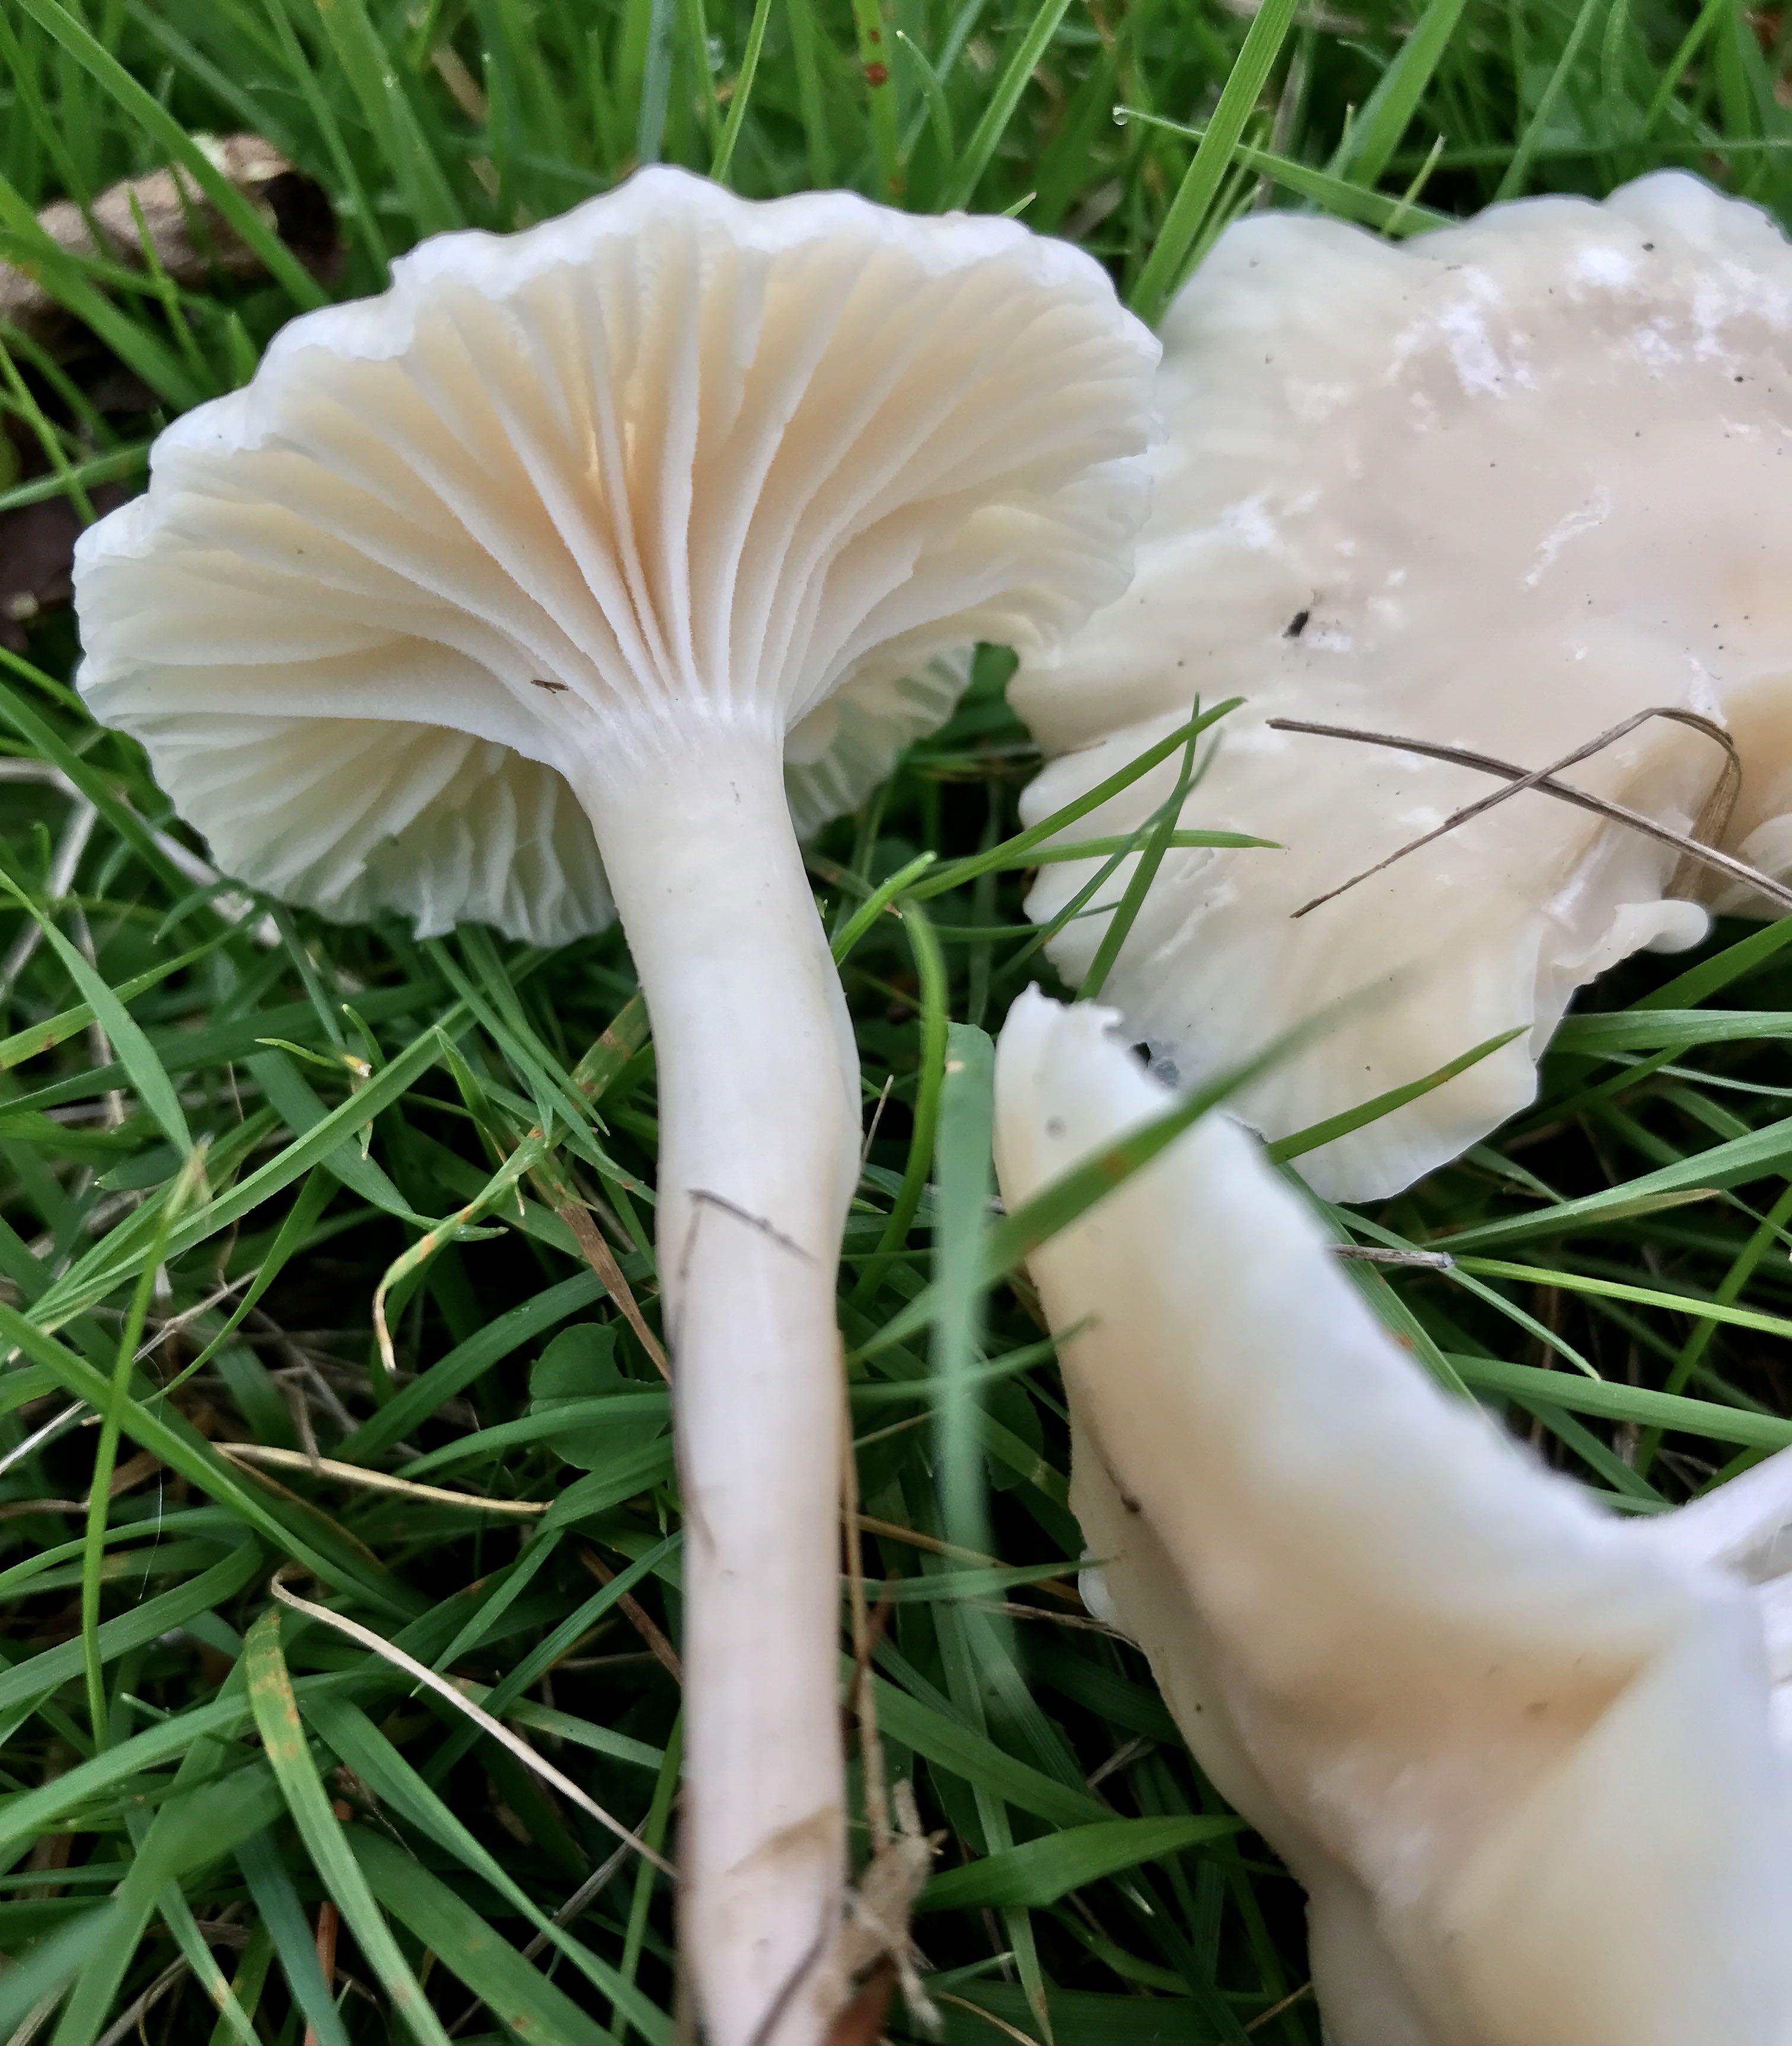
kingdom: Fungi
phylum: Basidiomycota
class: Agaricomycetes
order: Agaricales
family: Hygrophoraceae
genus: Cuphophyllus
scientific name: Cuphophyllus virgineus
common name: snehvid vokshat
